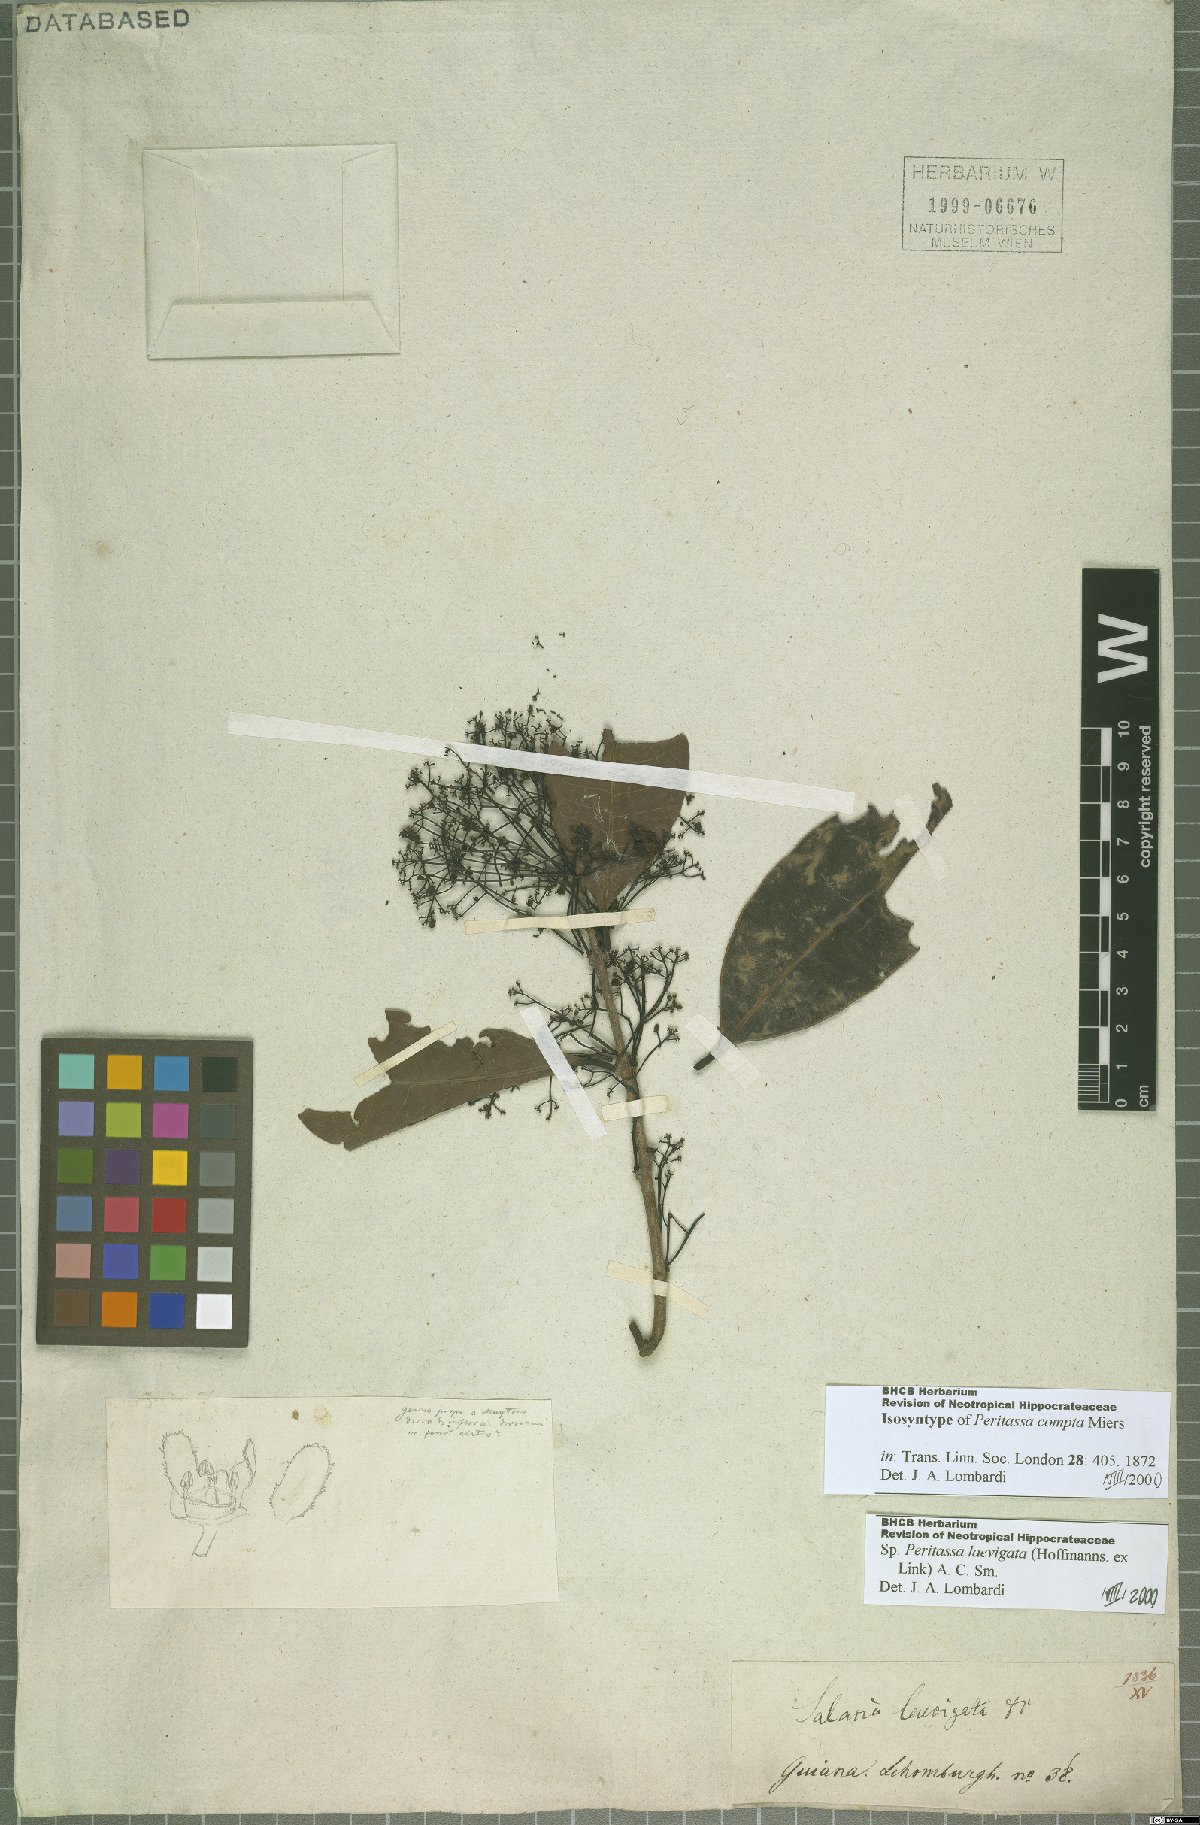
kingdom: Plantae
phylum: Tracheophyta
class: Magnoliopsida
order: Celastrales
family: Celastraceae
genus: Peritassa
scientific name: Peritassa laevigata
